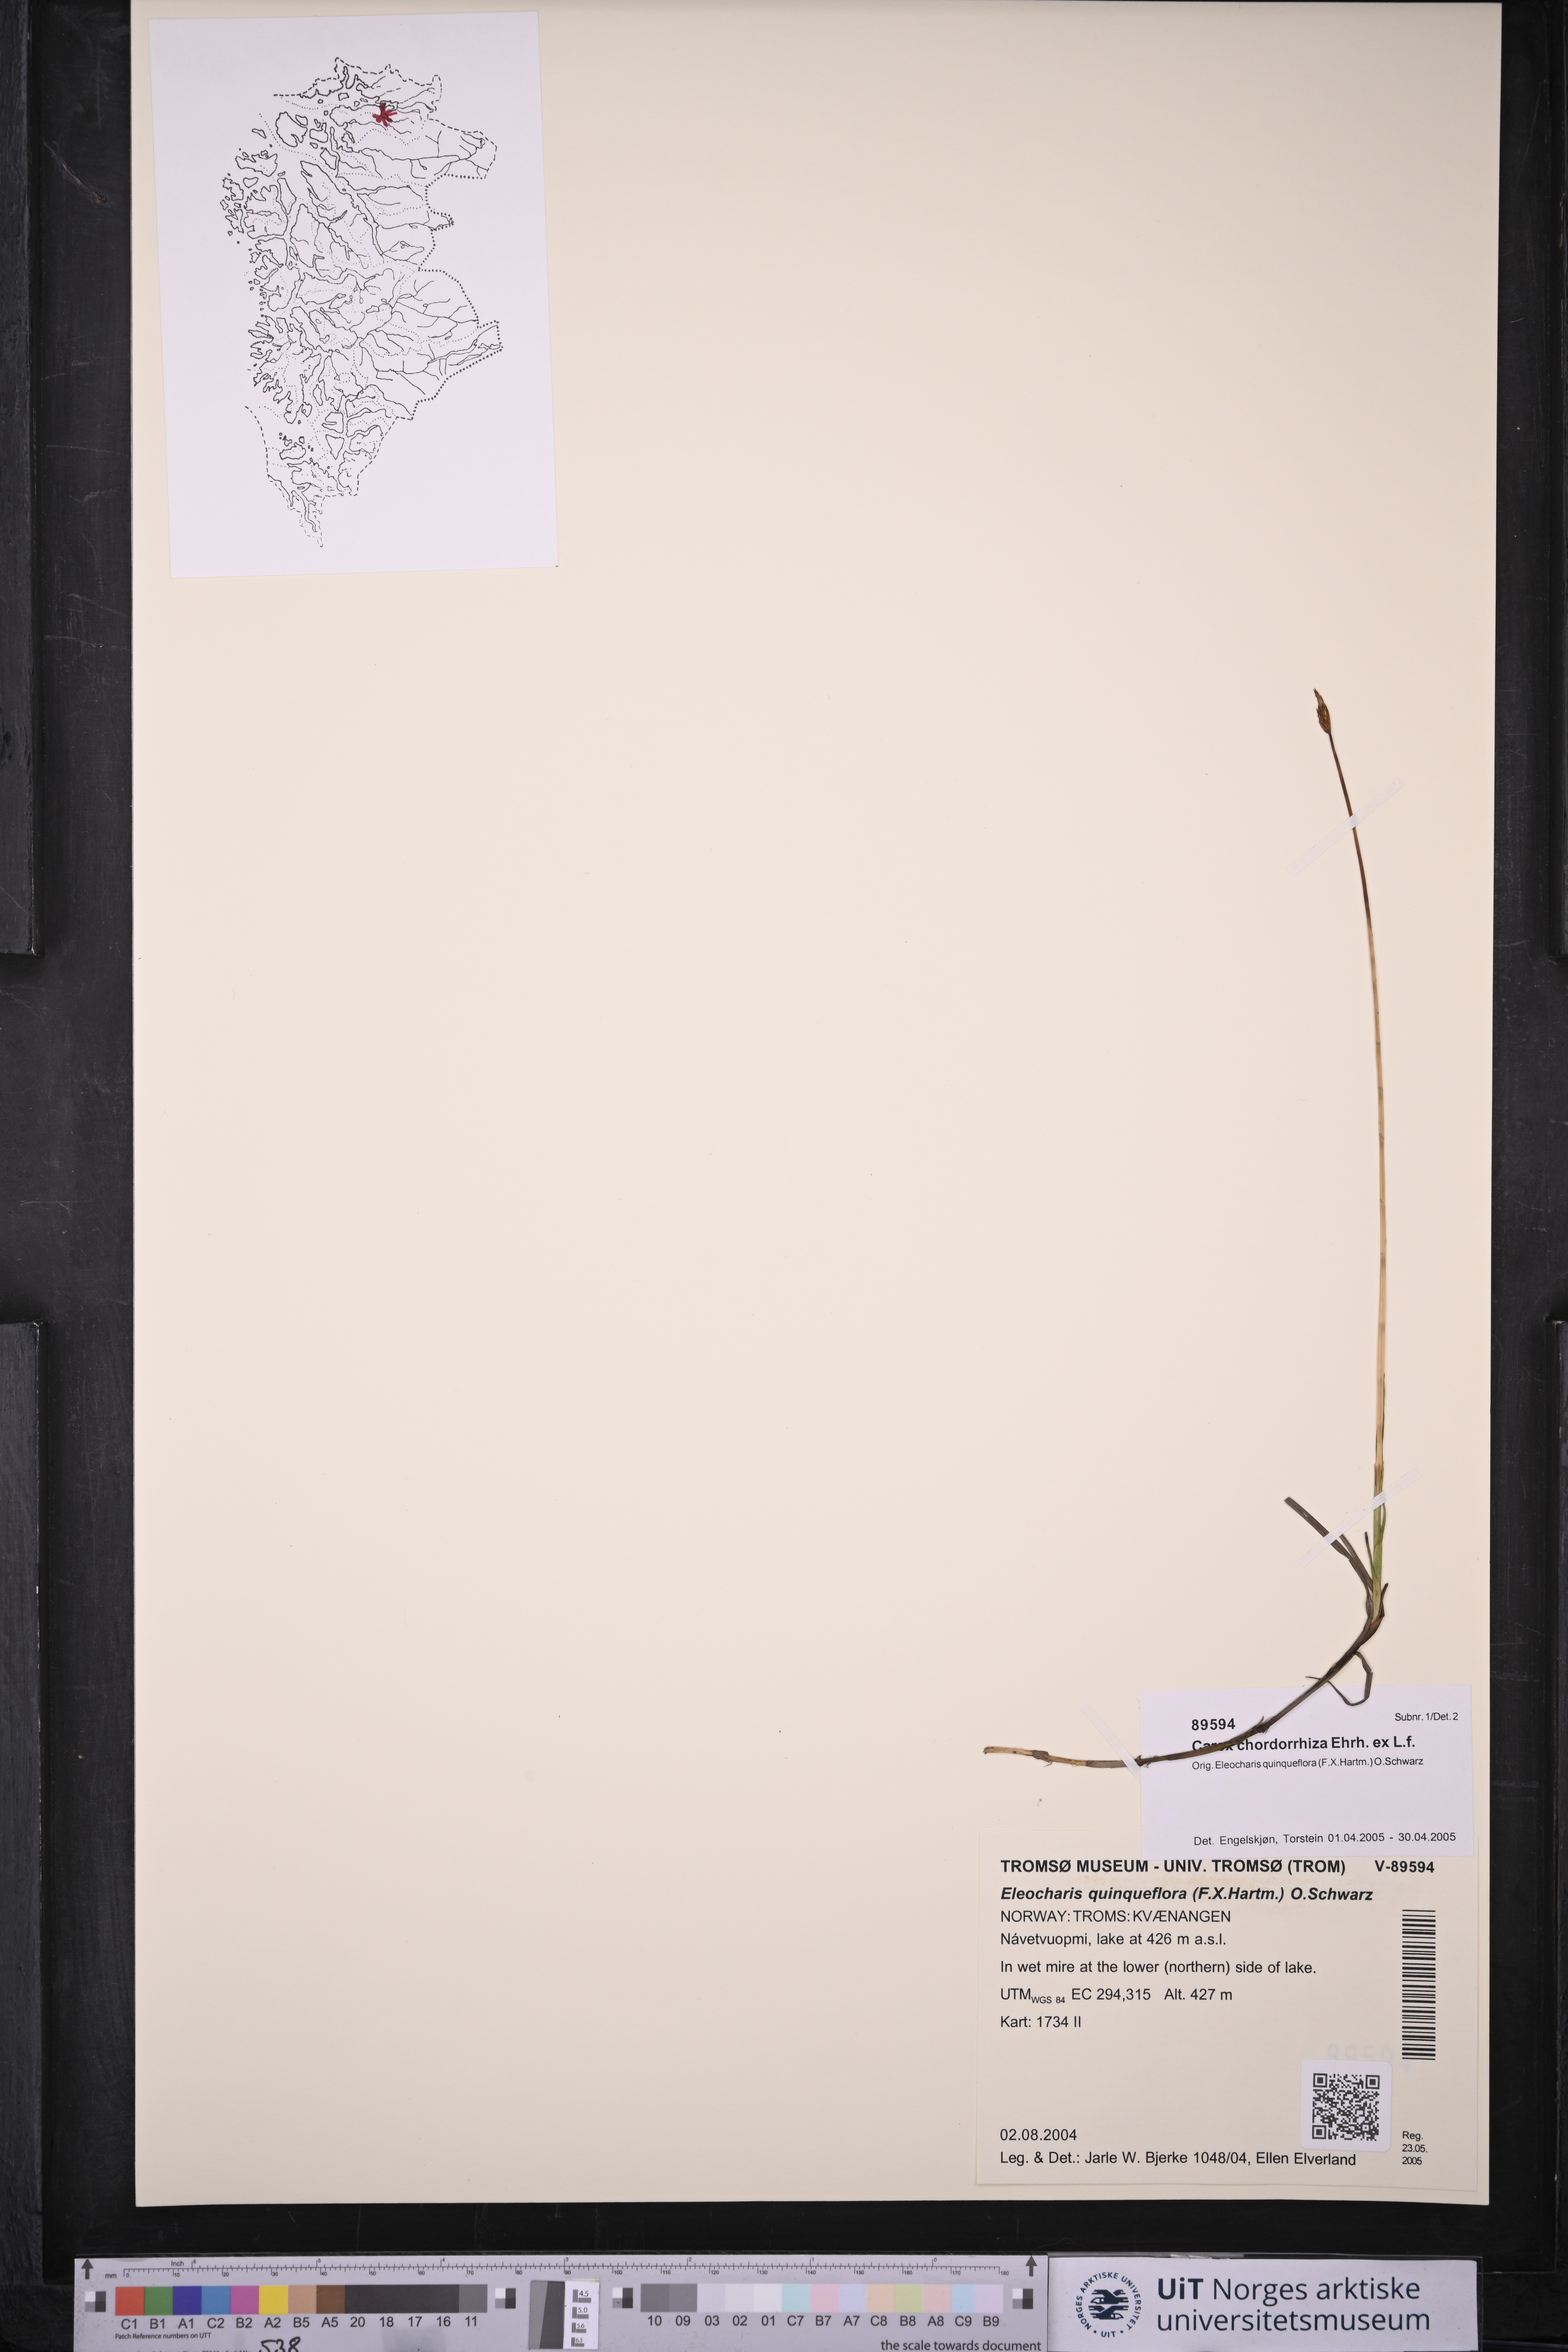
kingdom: Plantae
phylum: Tracheophyta
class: Liliopsida
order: Poales
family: Cyperaceae
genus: Carex
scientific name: Carex chordorrhiza
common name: String sedge
